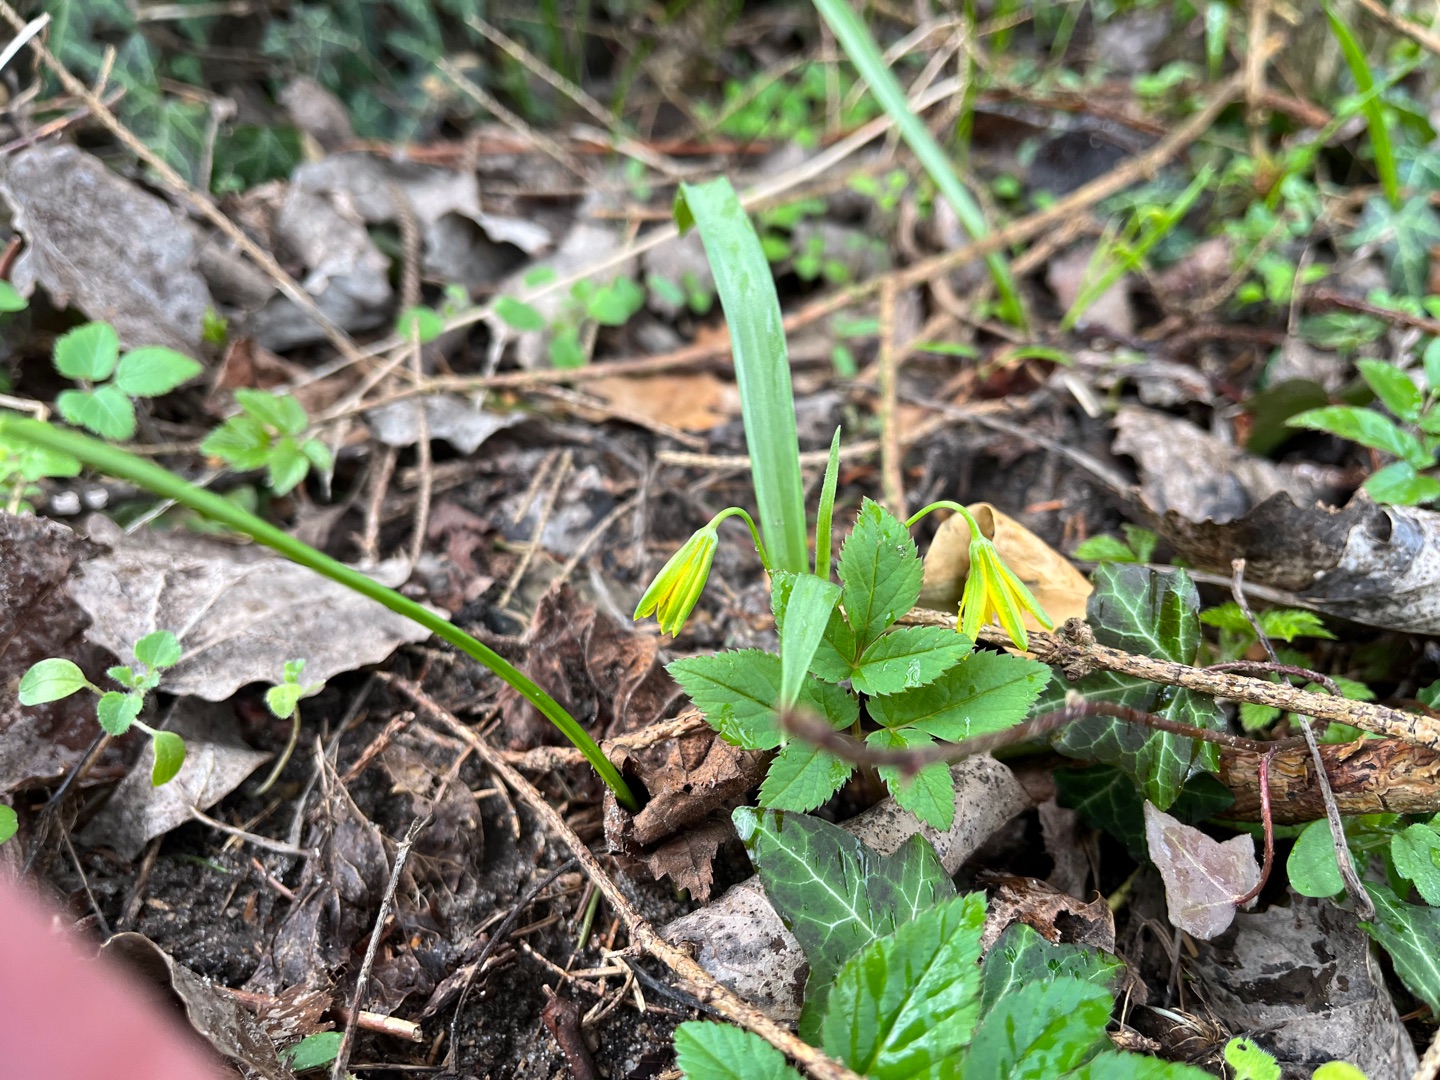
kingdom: Plantae
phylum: Tracheophyta
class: Liliopsida
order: Liliales
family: Liliaceae
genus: Gagea
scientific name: Gagea lutea
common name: Almindelig guldstjerne
